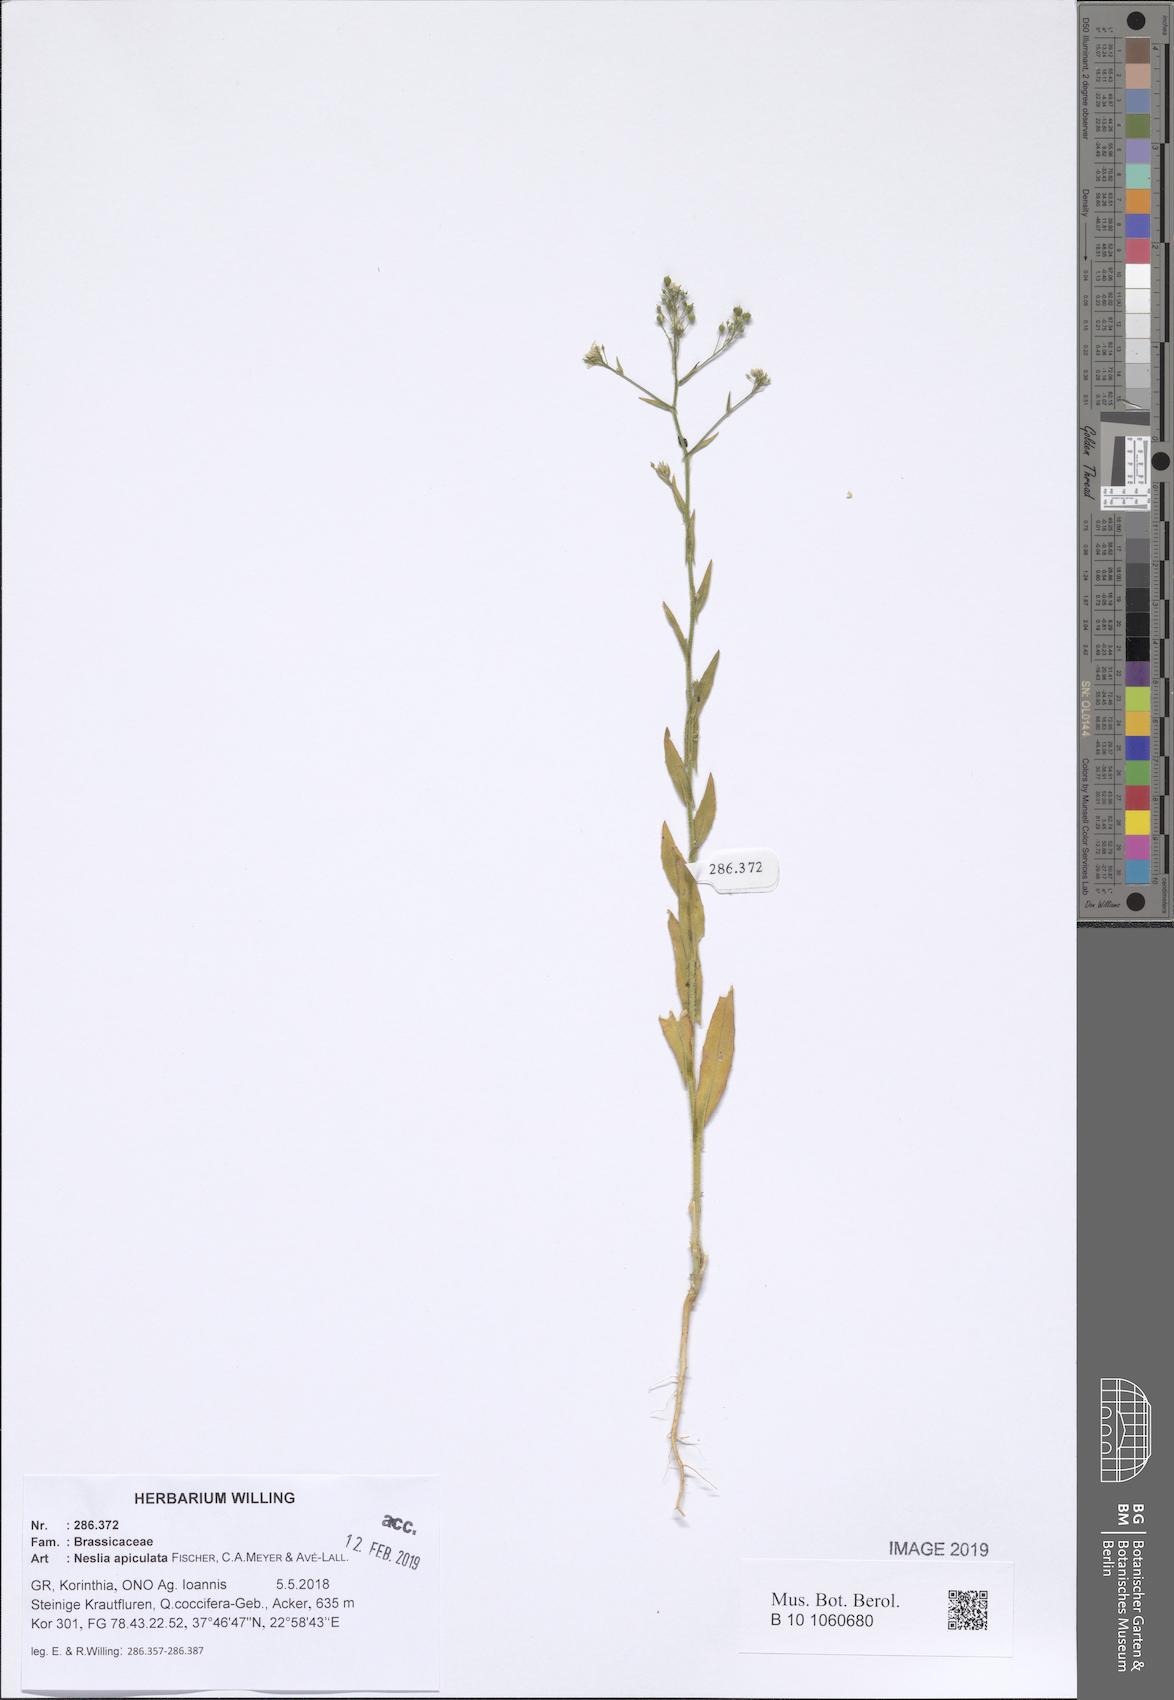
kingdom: Plantae
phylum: Tracheophyta
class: Magnoliopsida
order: Brassicales
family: Brassicaceae
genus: Neslia
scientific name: Neslia paniculata
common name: Ball mustard
